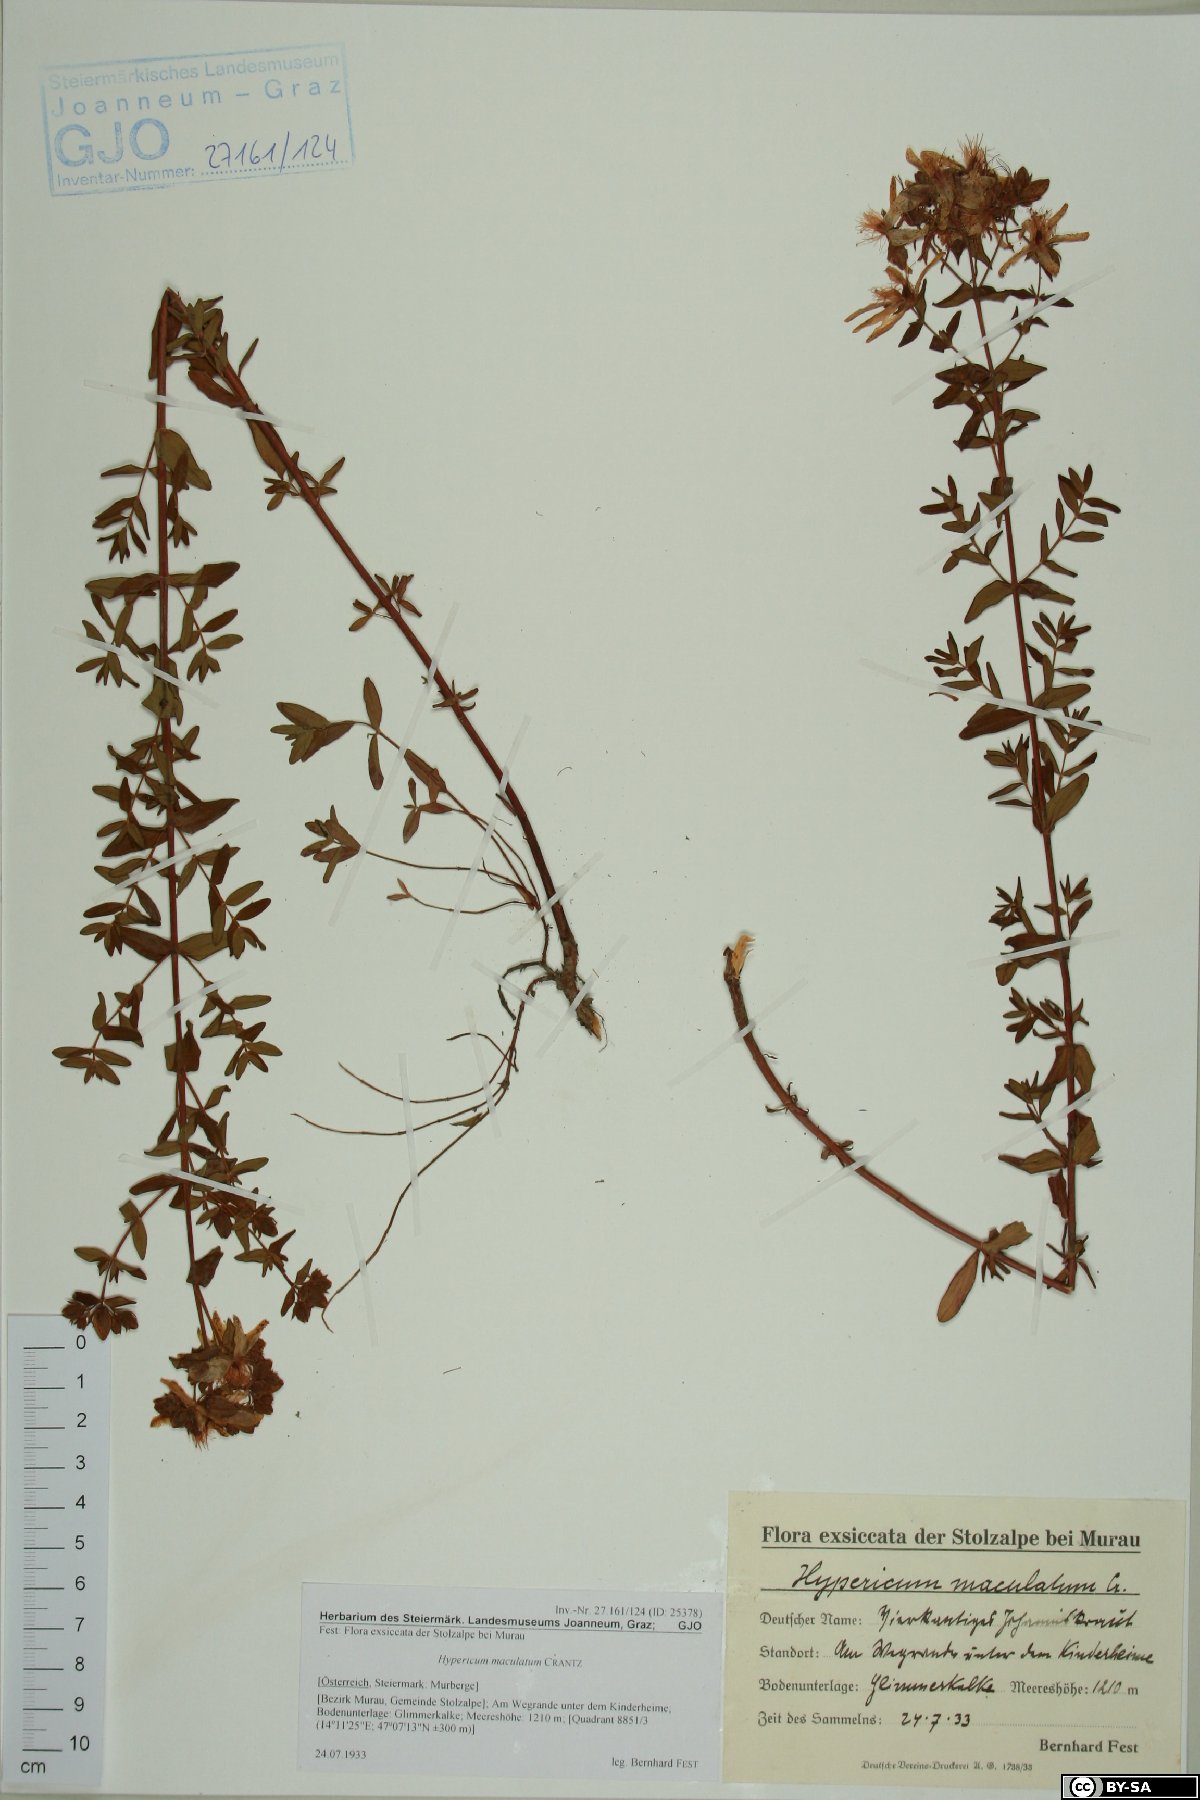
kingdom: Plantae
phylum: Tracheophyta
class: Magnoliopsida
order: Malpighiales
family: Hypericaceae
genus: Hypericum
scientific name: Hypericum maculatum
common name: Imperforate st. john's-wort
